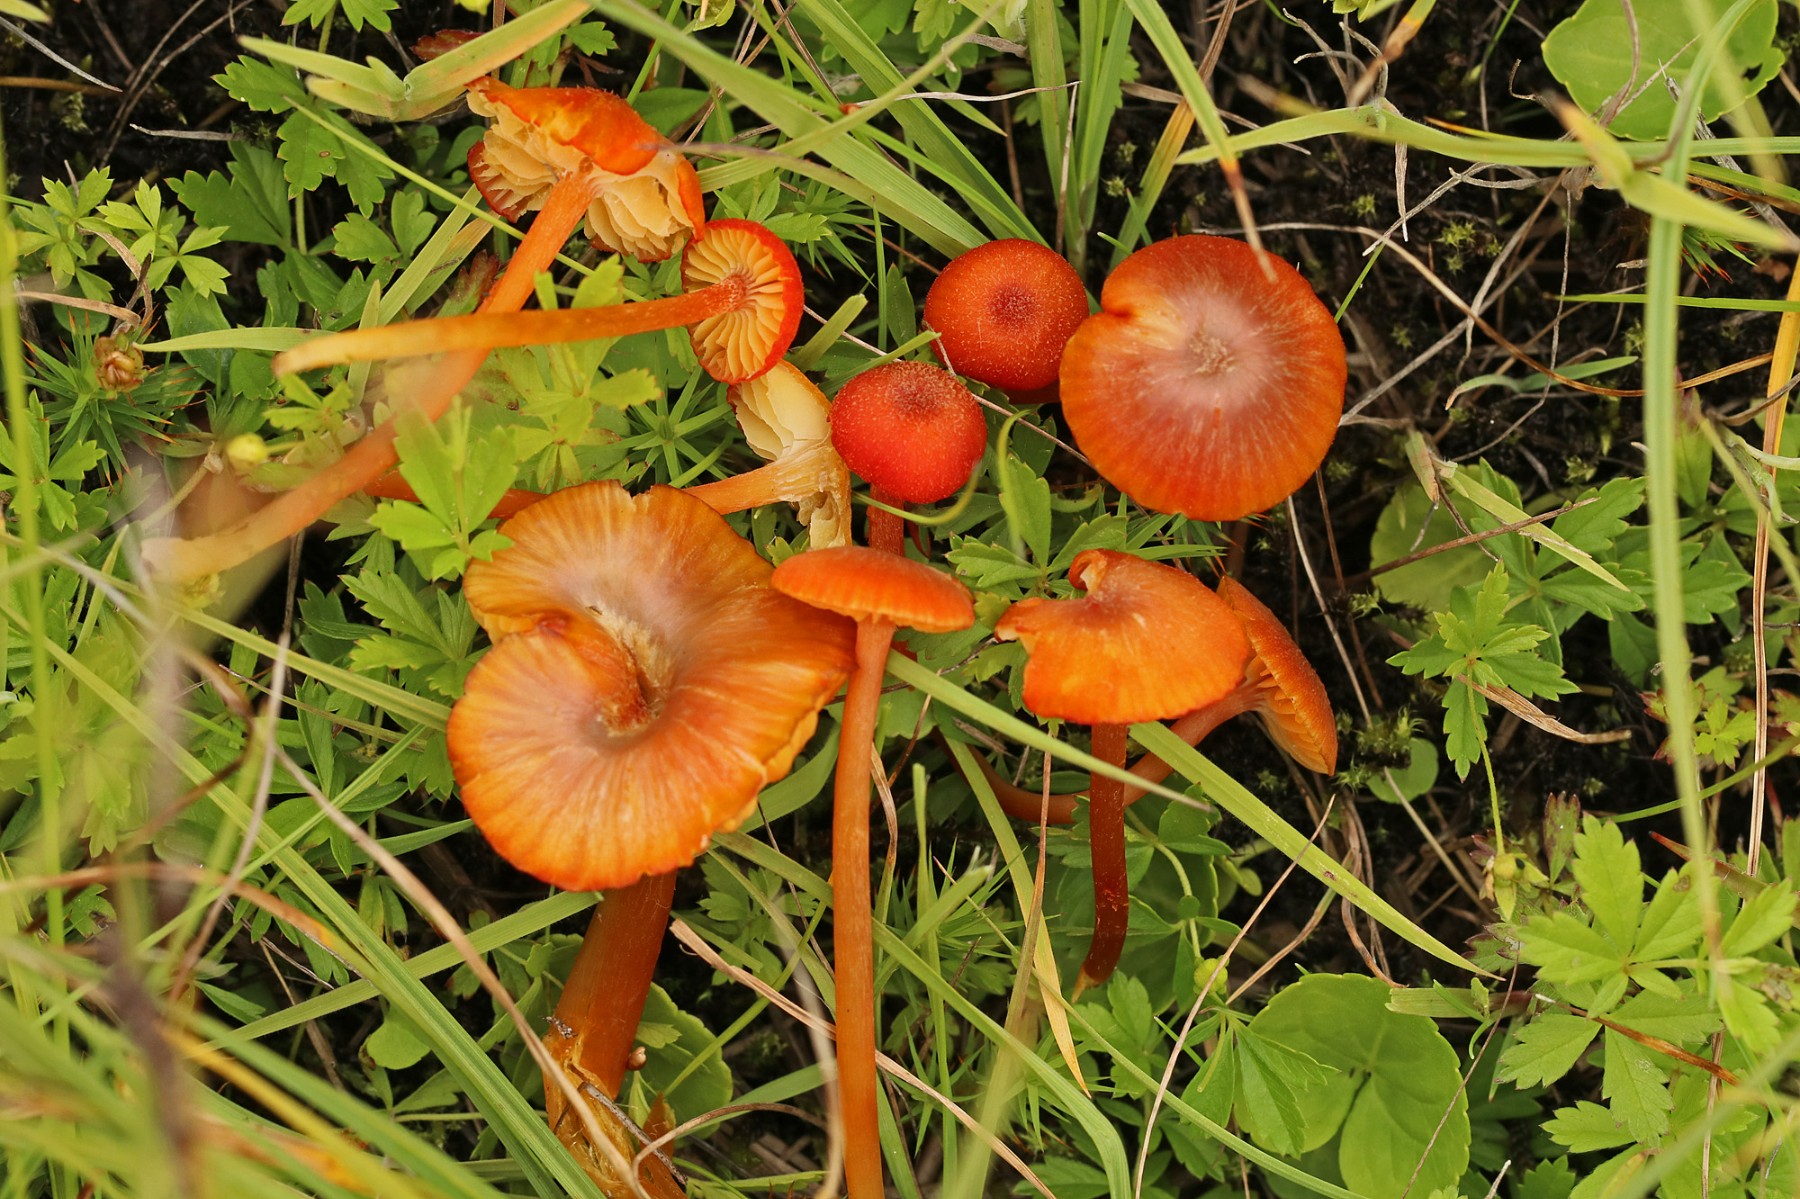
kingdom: Fungi
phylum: Basidiomycota
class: Agaricomycetes
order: Agaricales
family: Hygrophoraceae
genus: Hygrocybe
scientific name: Hygrocybe helobia
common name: hvidløgs-vokshat
